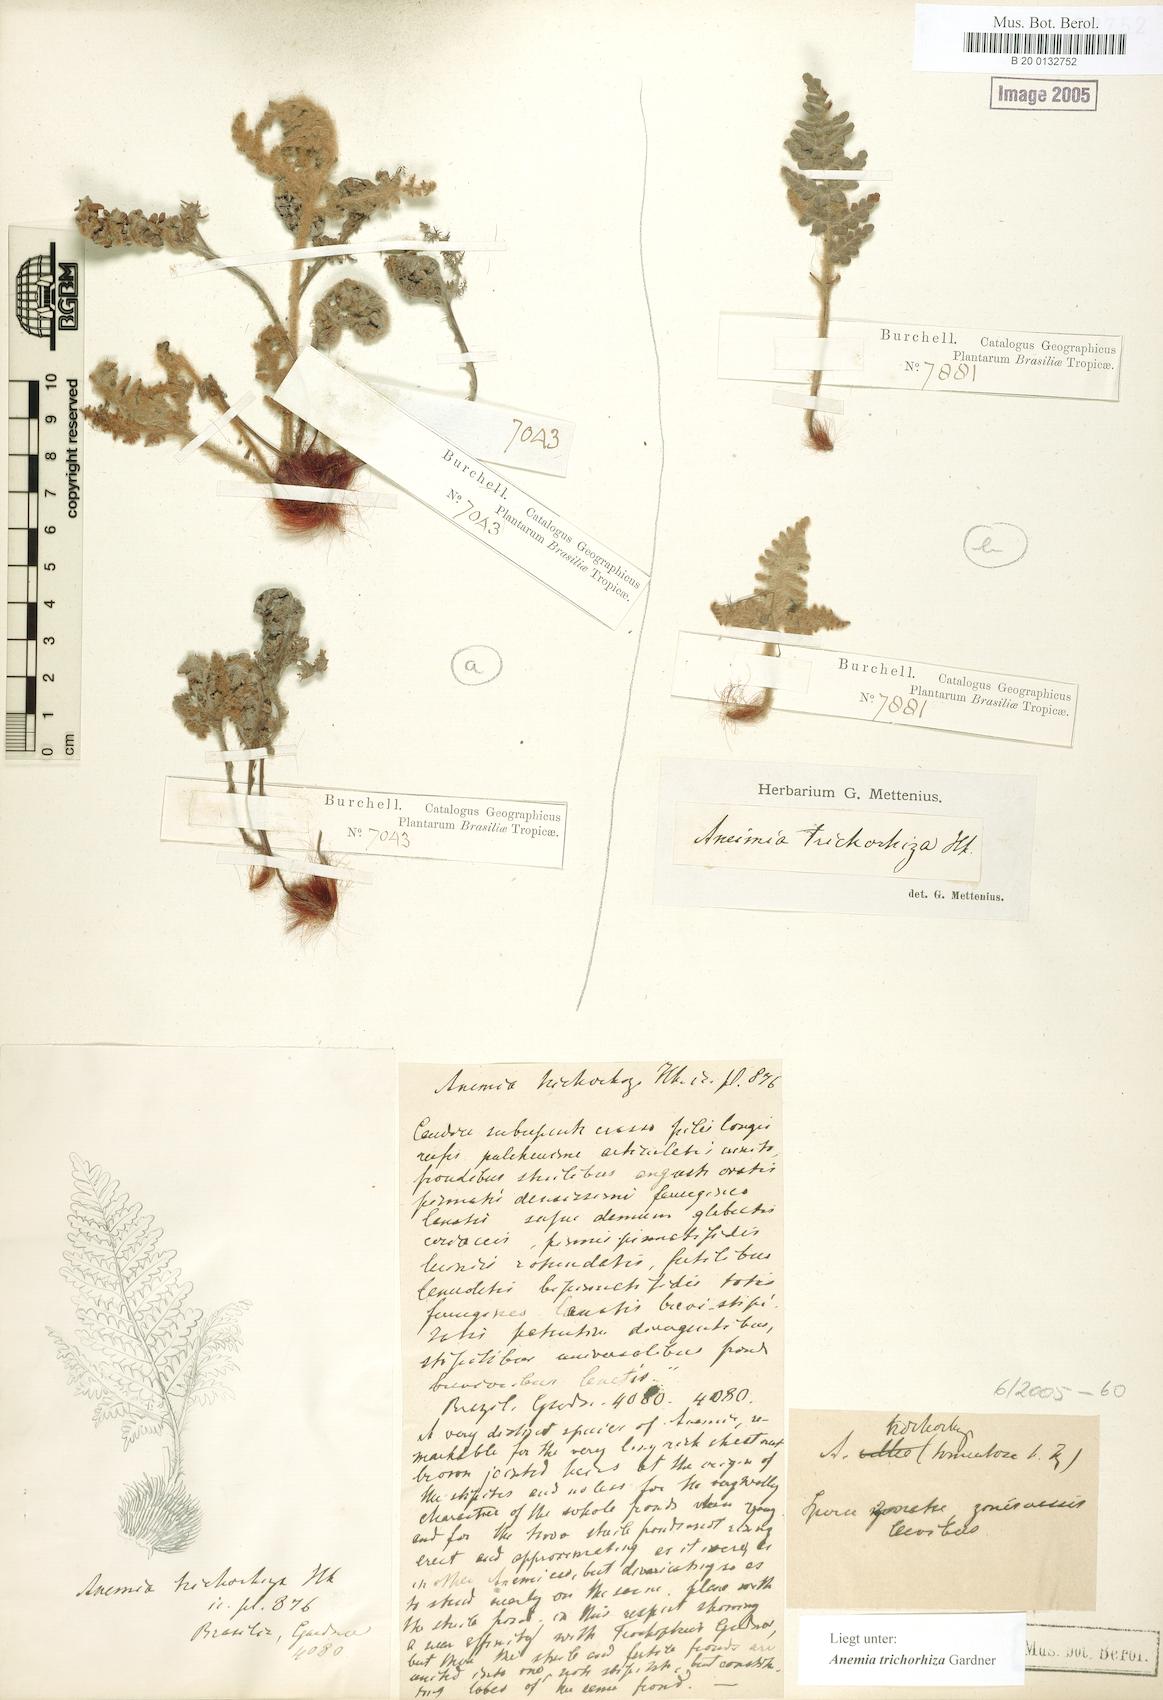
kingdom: Plantae
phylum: Tracheophyta
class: Polypodiopsida
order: Schizaeales
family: Anemiaceae
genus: Anemia
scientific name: Anemia trichorhiza
